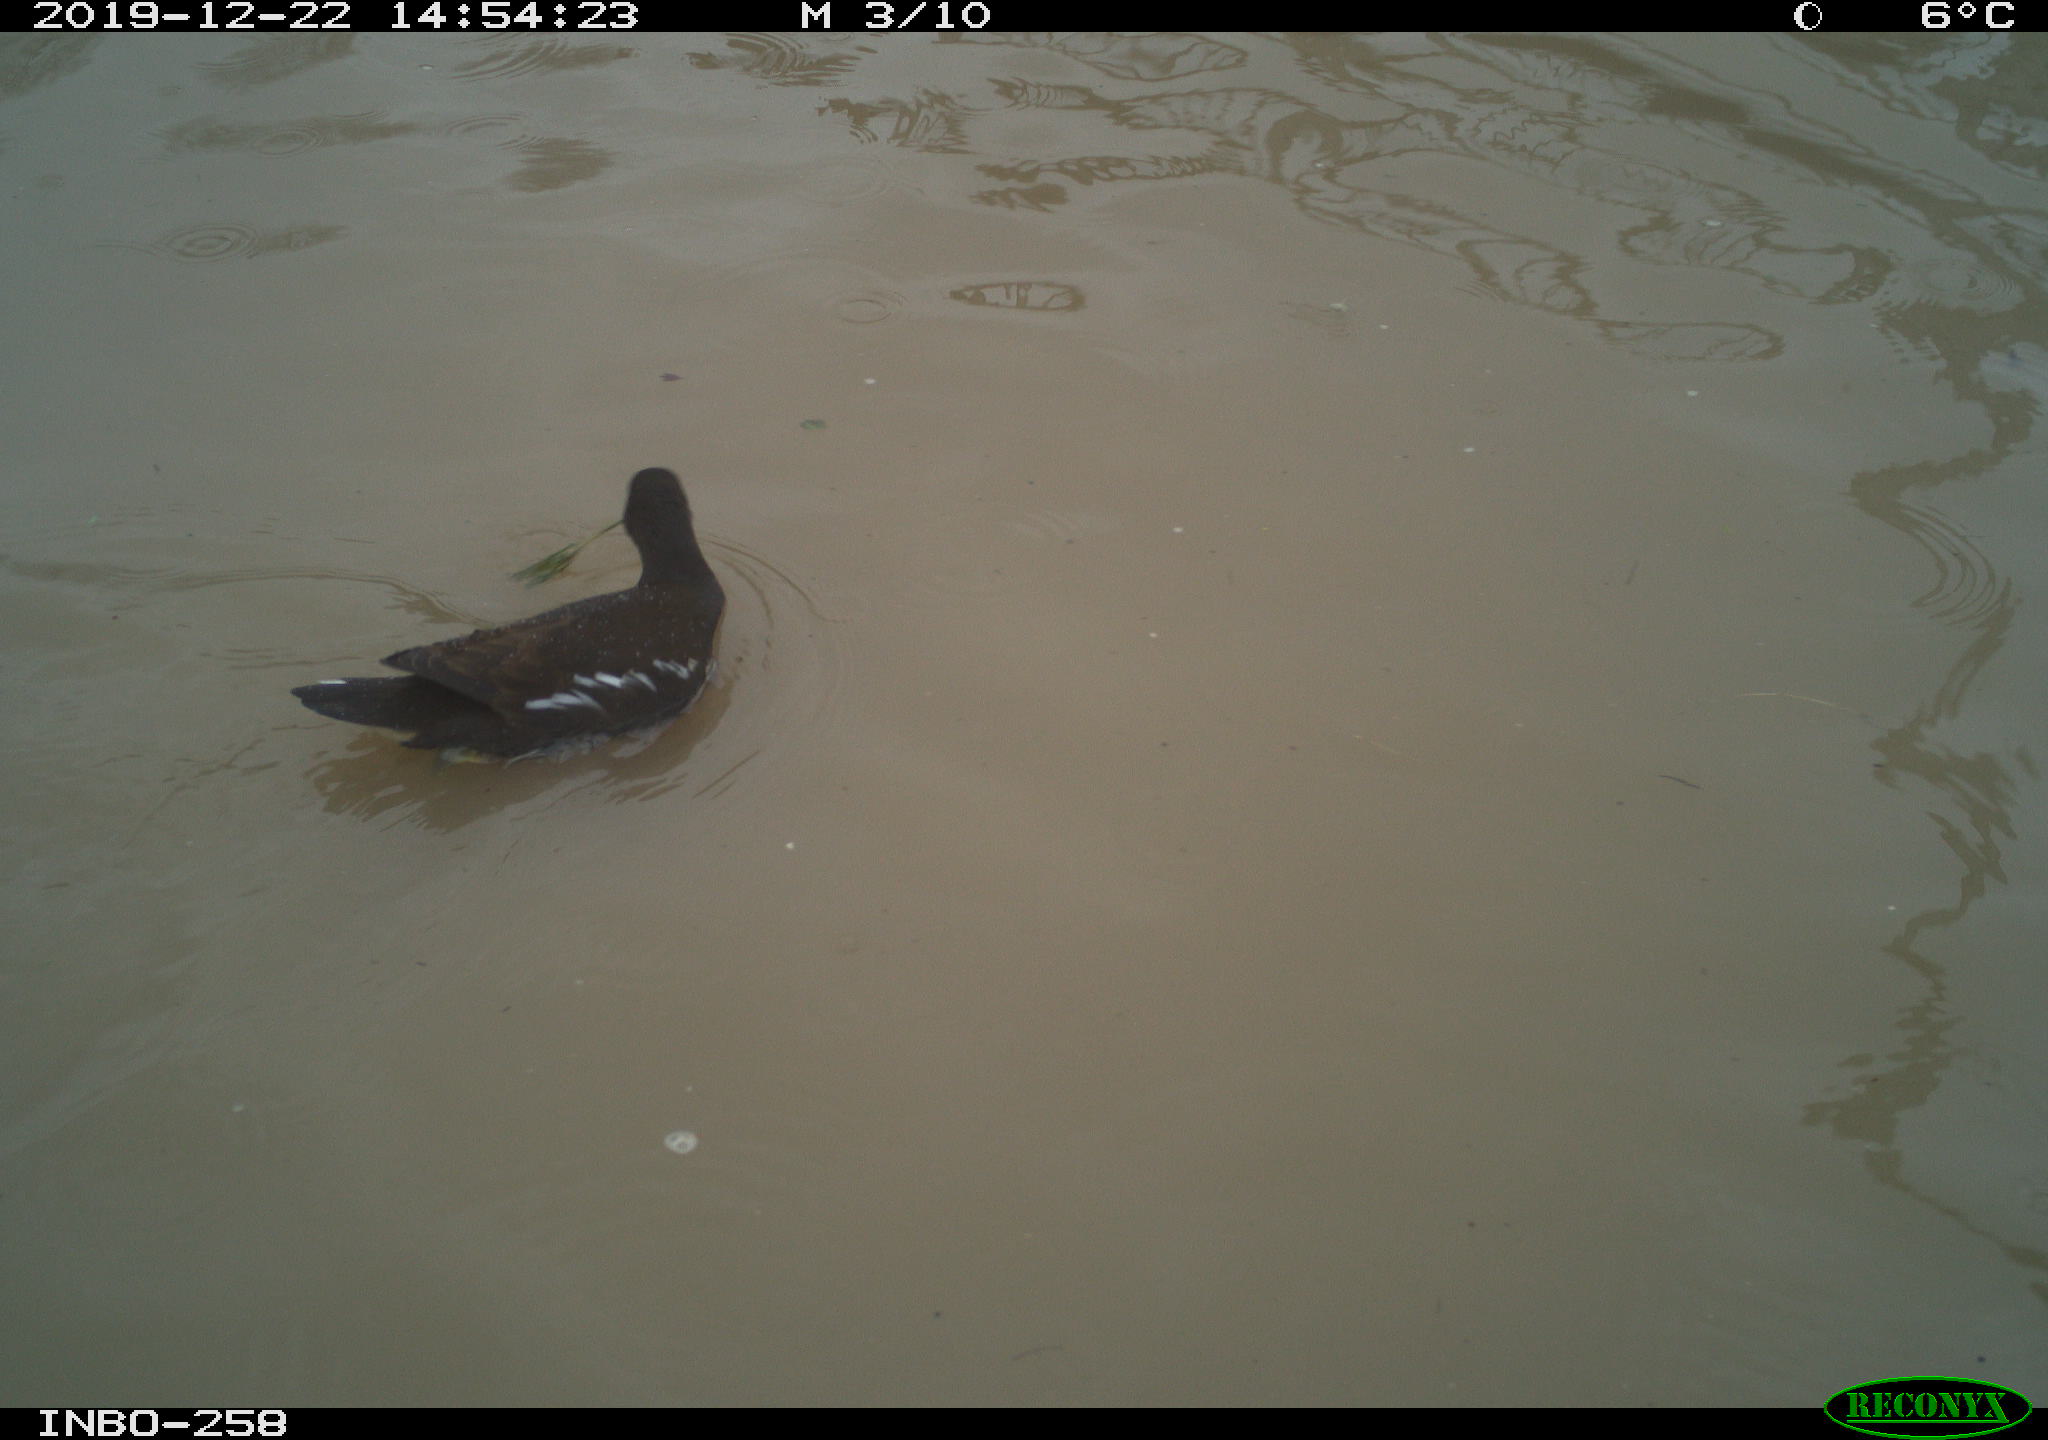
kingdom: Animalia
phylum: Chordata
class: Aves
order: Gruiformes
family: Rallidae
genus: Gallinula
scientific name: Gallinula chloropus
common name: Common moorhen
